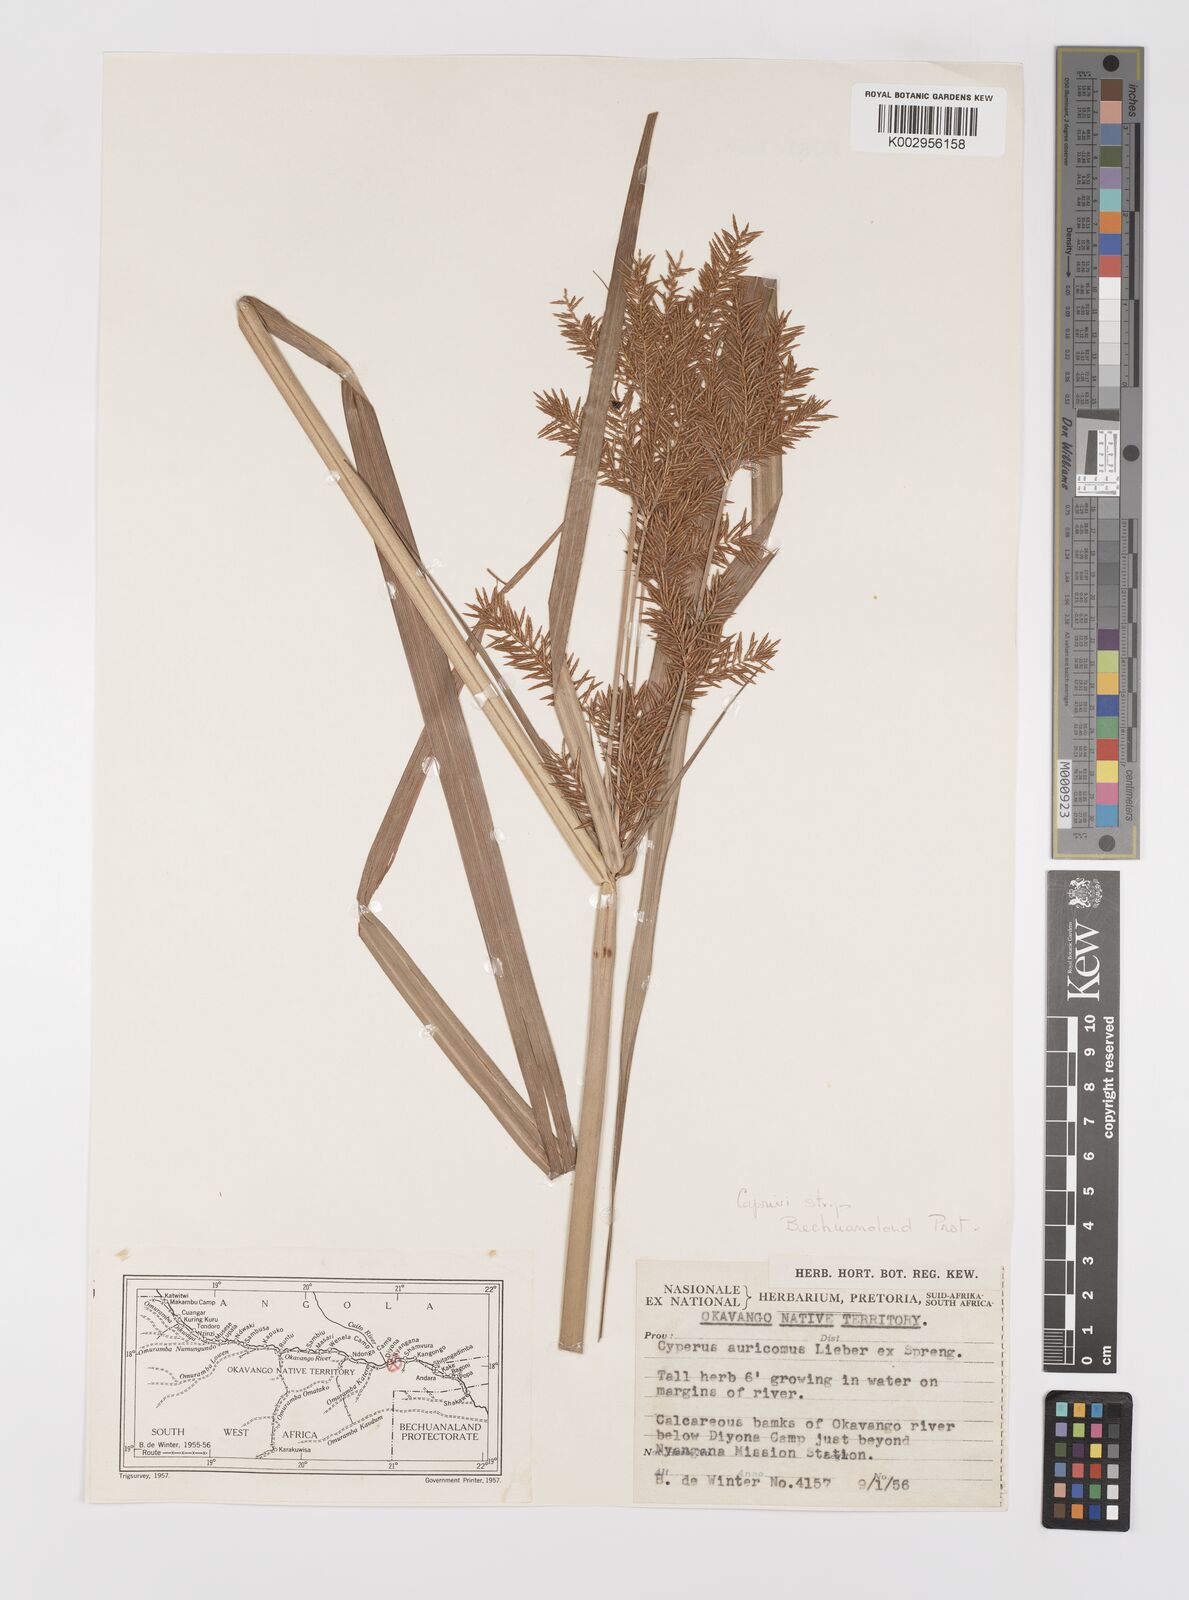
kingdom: Plantae
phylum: Tracheophyta
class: Liliopsida
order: Poales
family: Cyperaceae
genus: Cyperus
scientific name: Cyperus digitatus
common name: Finger flatsedge
